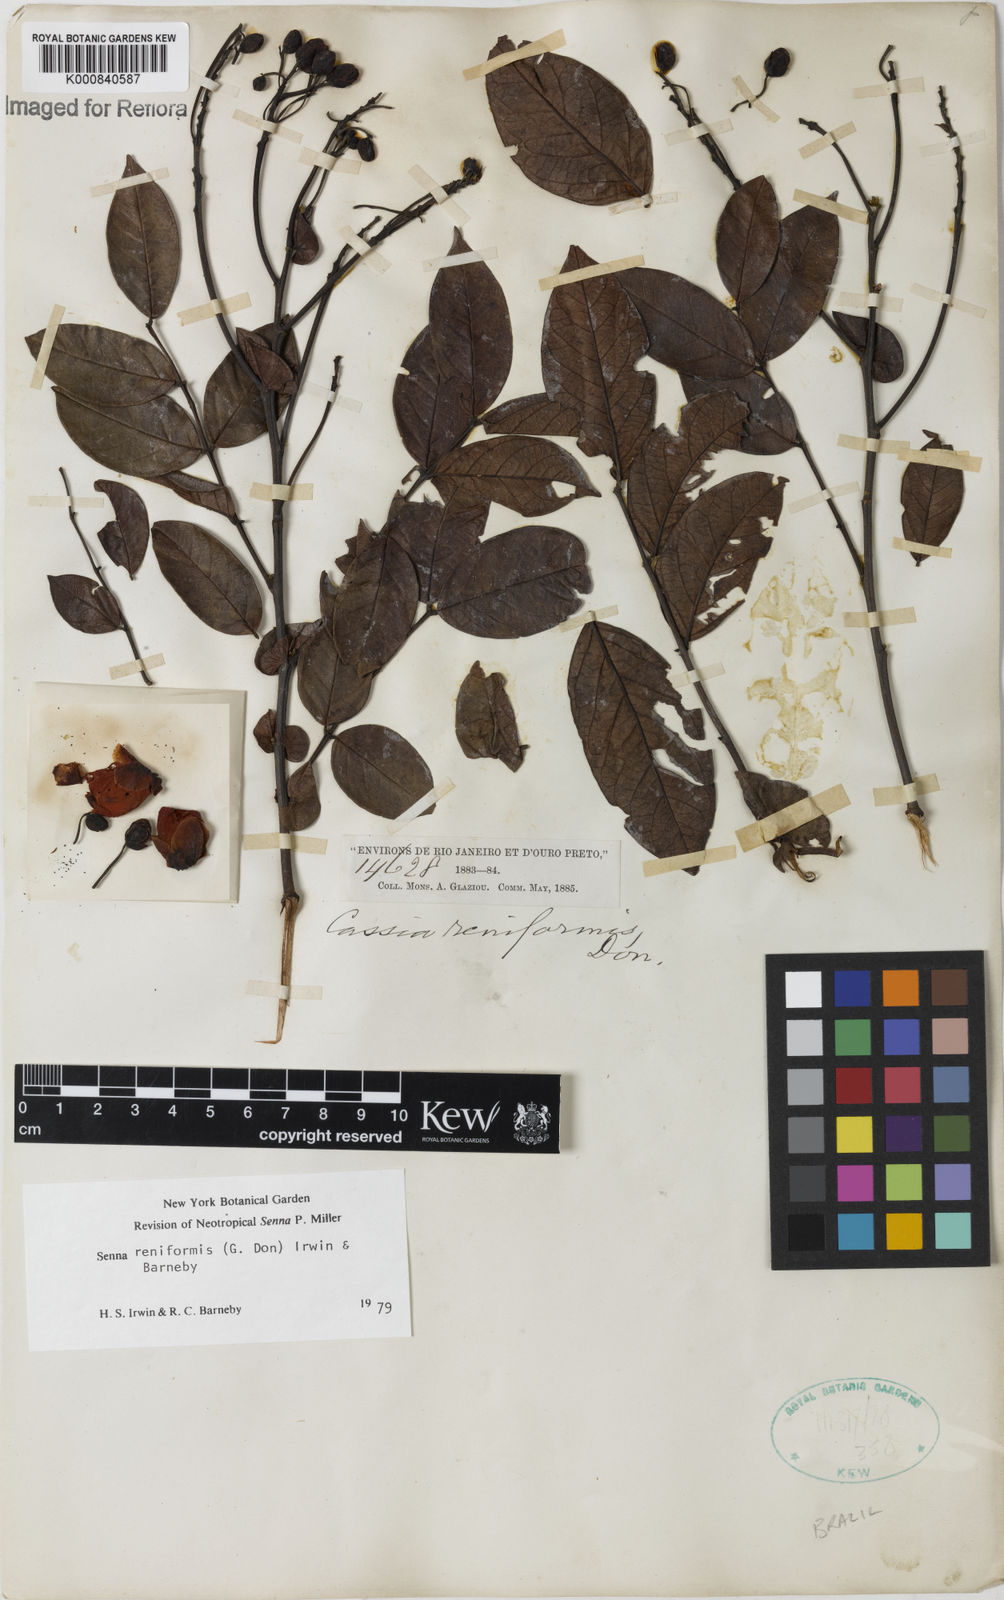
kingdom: Plantae
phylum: Tracheophyta
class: Magnoliopsida
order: Fabales
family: Fabaceae
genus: Senna
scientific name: Senna reniformis
